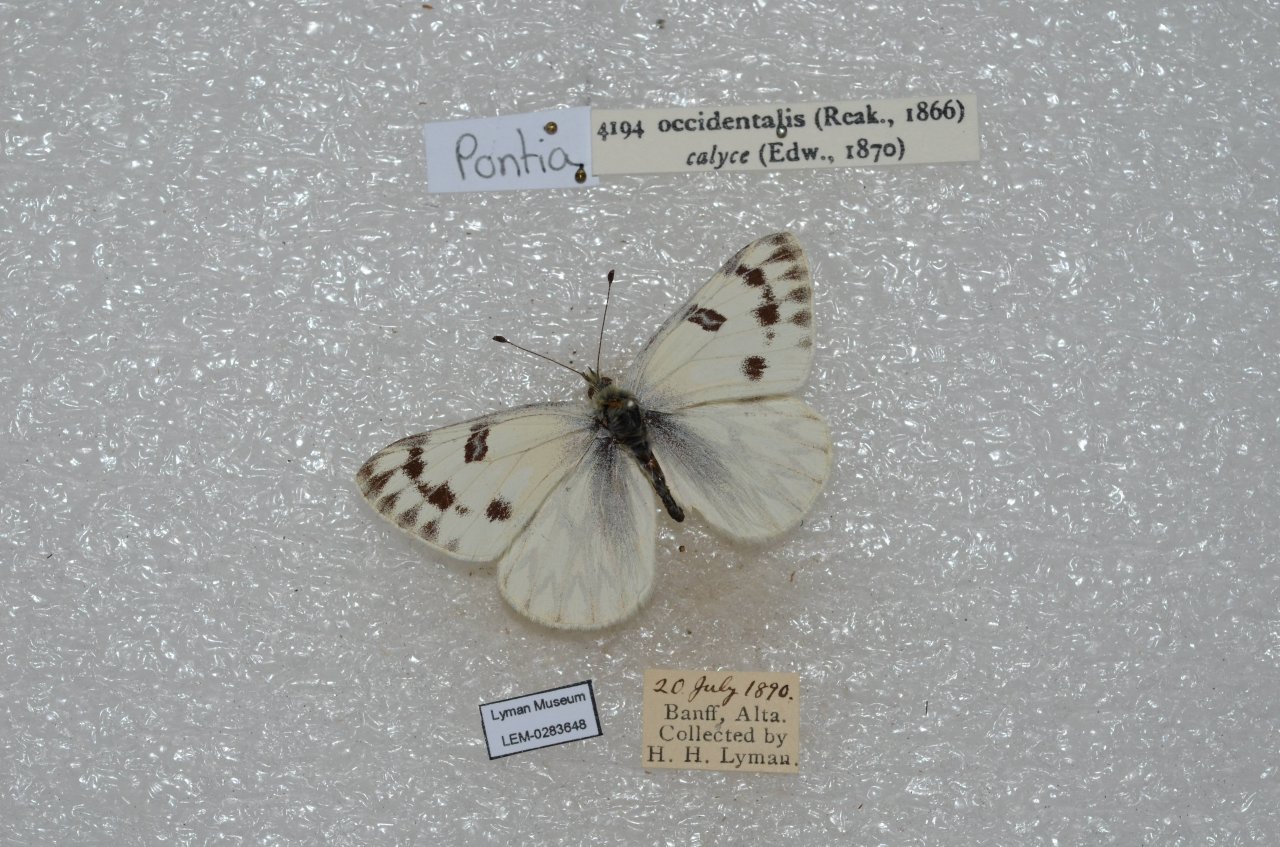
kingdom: Animalia
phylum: Arthropoda
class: Insecta
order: Lepidoptera
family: Pieridae
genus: Pontia
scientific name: Pontia occidentalis
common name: Western White
